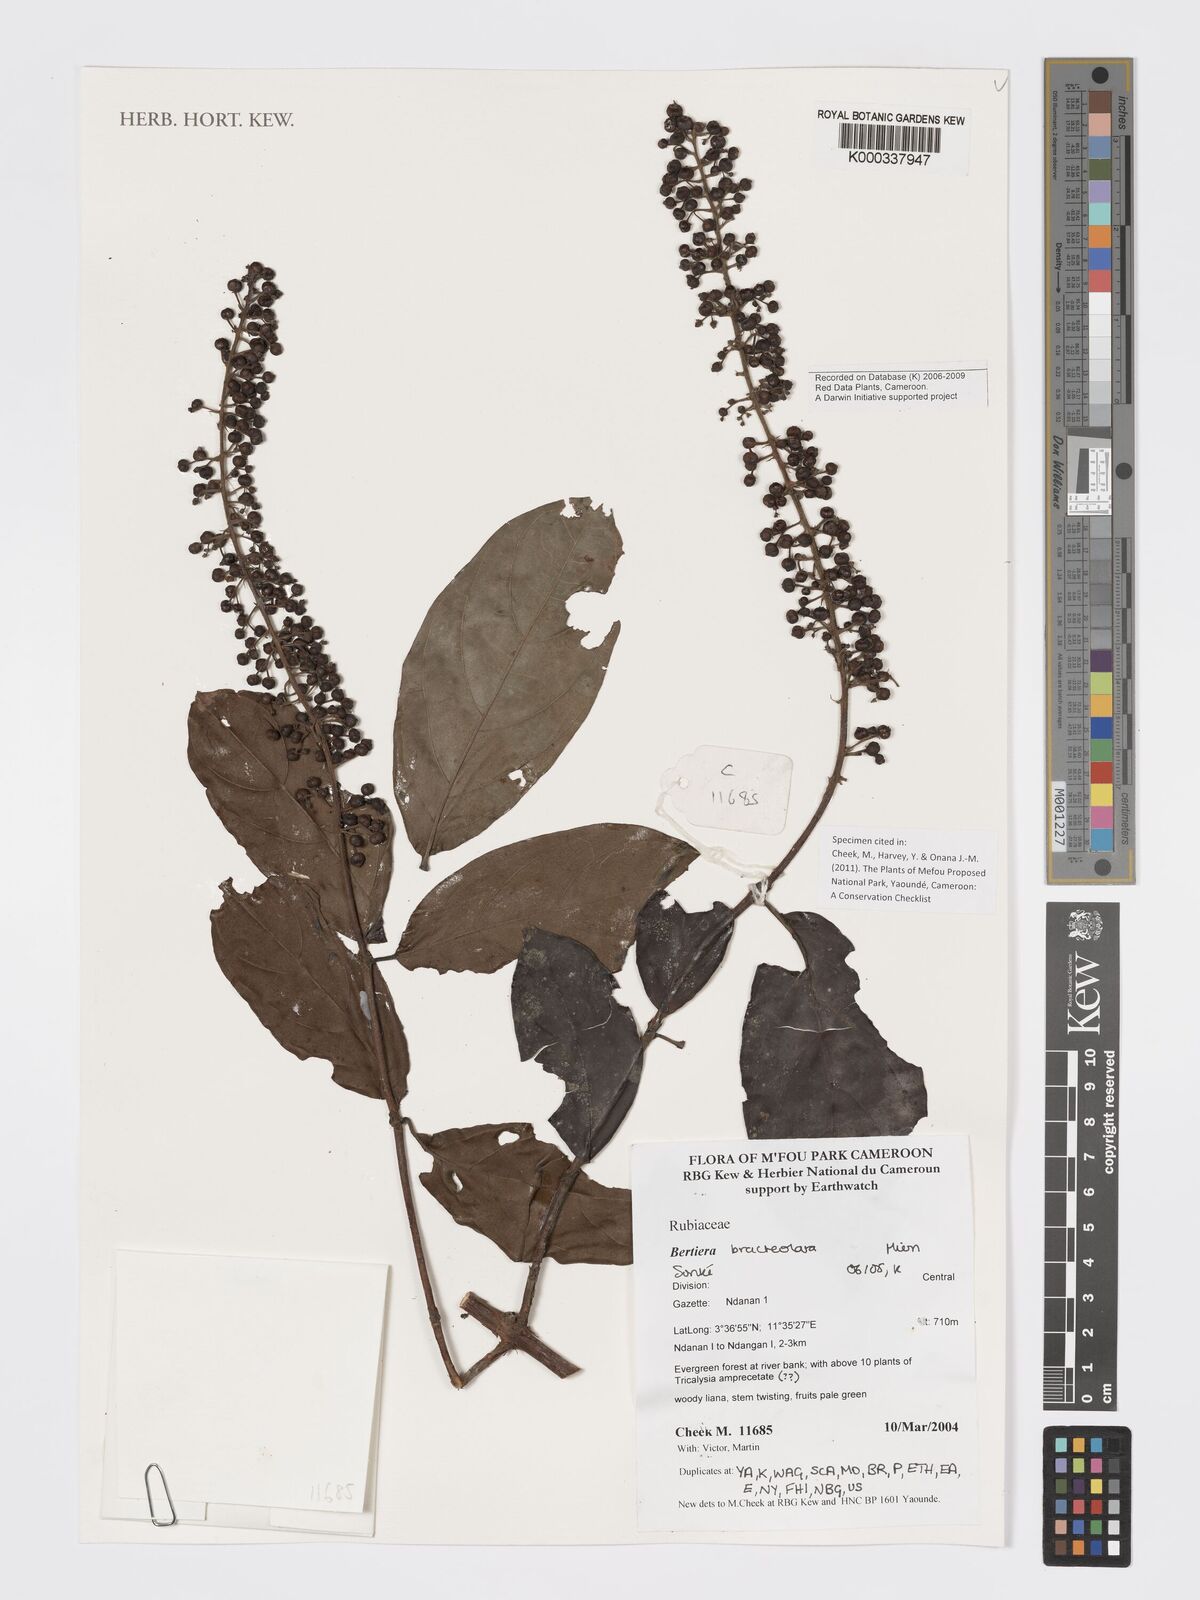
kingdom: Plantae
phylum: Tracheophyta
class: Magnoliopsida
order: Gentianales
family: Rubiaceae
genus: Bertiera
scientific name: Bertiera bracteolata
